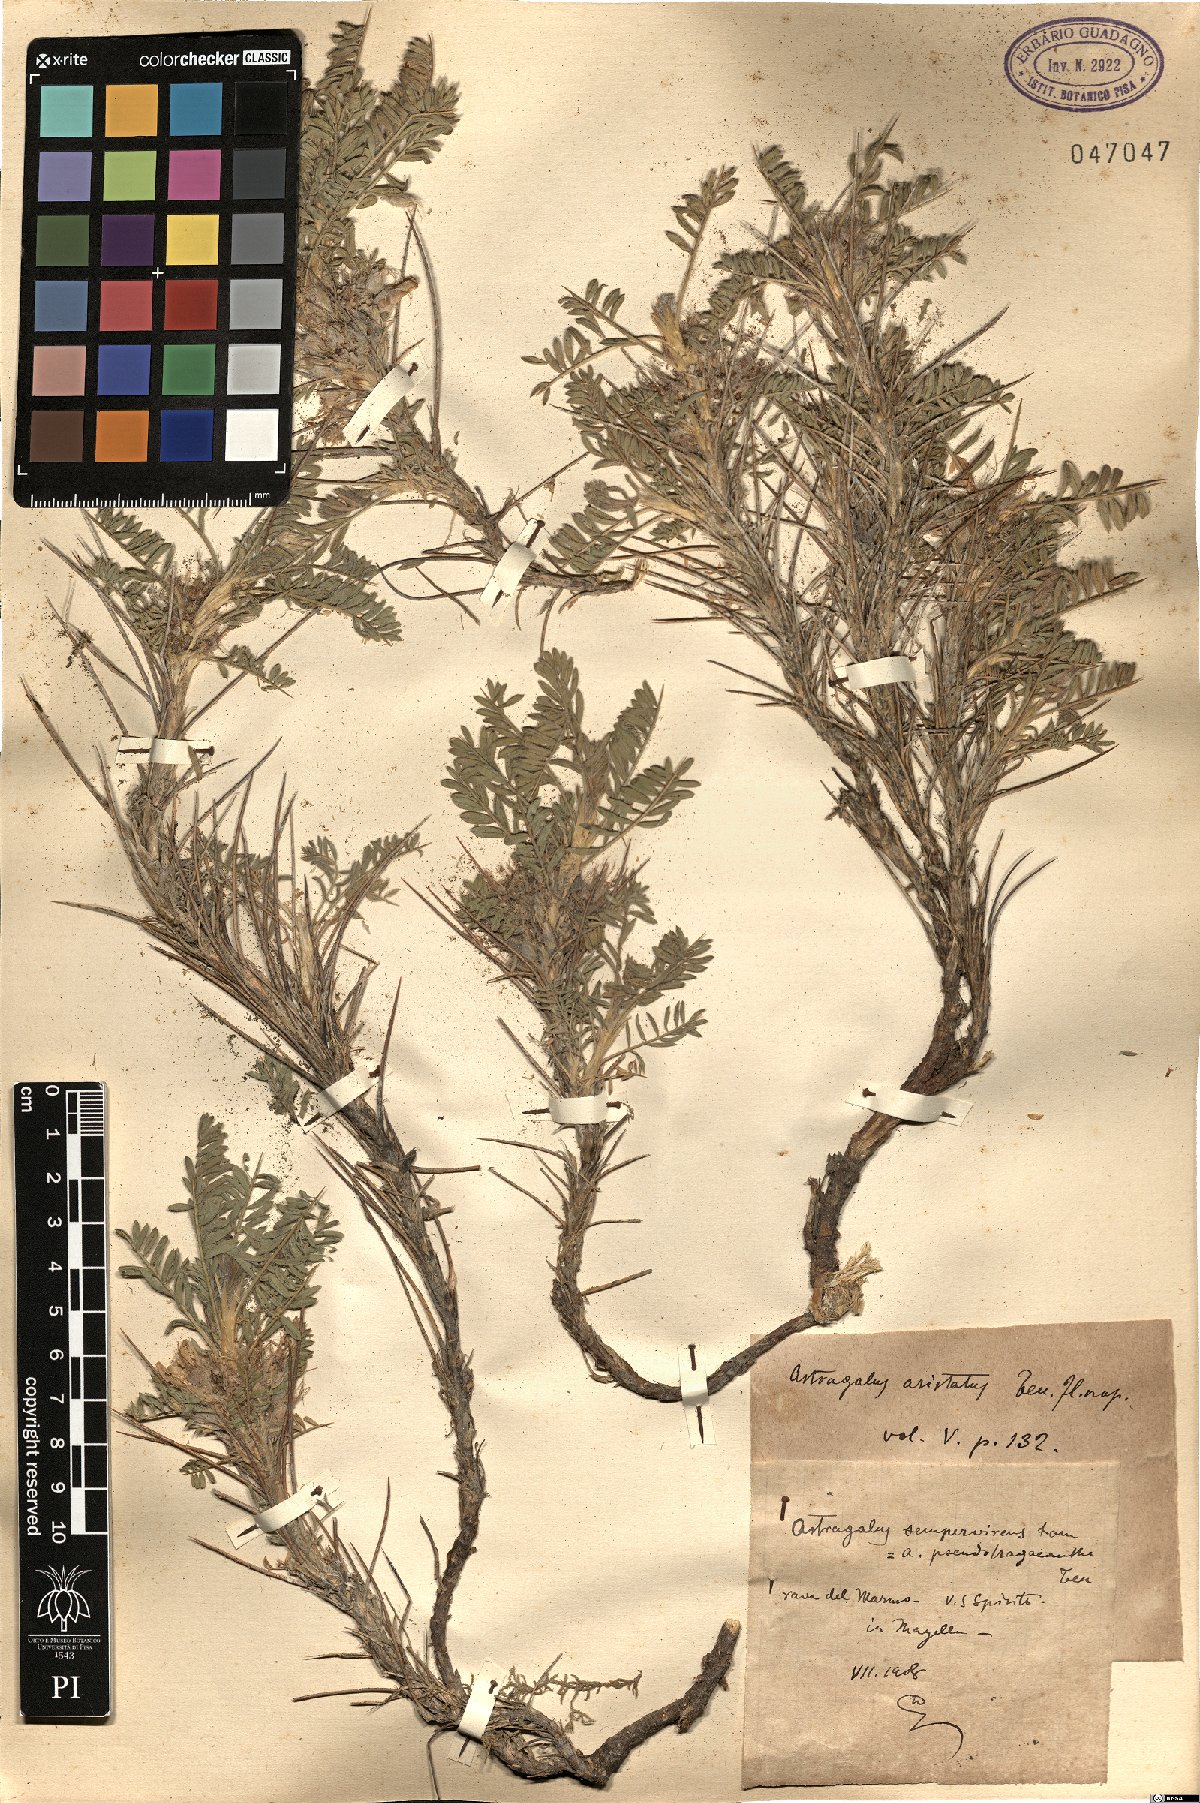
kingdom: Plantae
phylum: Tracheophyta
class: Magnoliopsida
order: Fabales
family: Fabaceae
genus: Astragalus
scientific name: Astragalus
